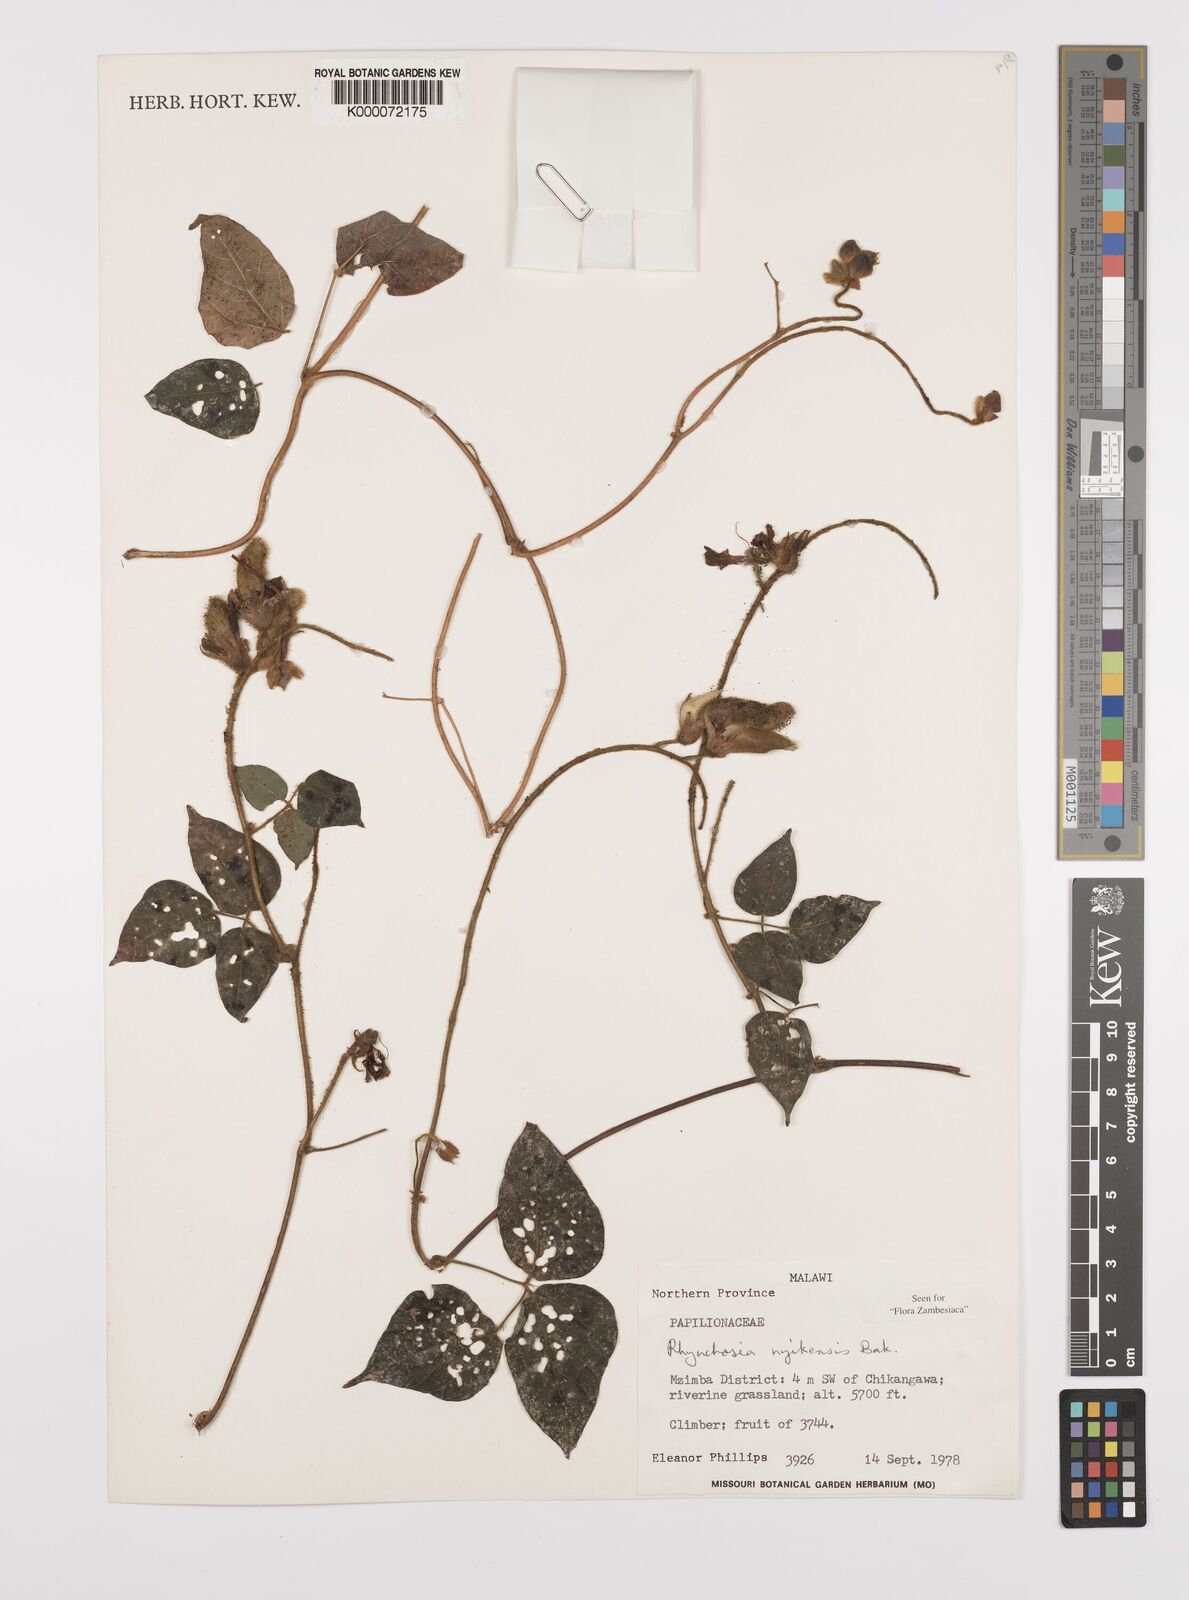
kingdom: Plantae
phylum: Tracheophyta
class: Magnoliopsida
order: Fabales
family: Fabaceae
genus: Rhynchosia
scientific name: Rhynchosia nyikensis
